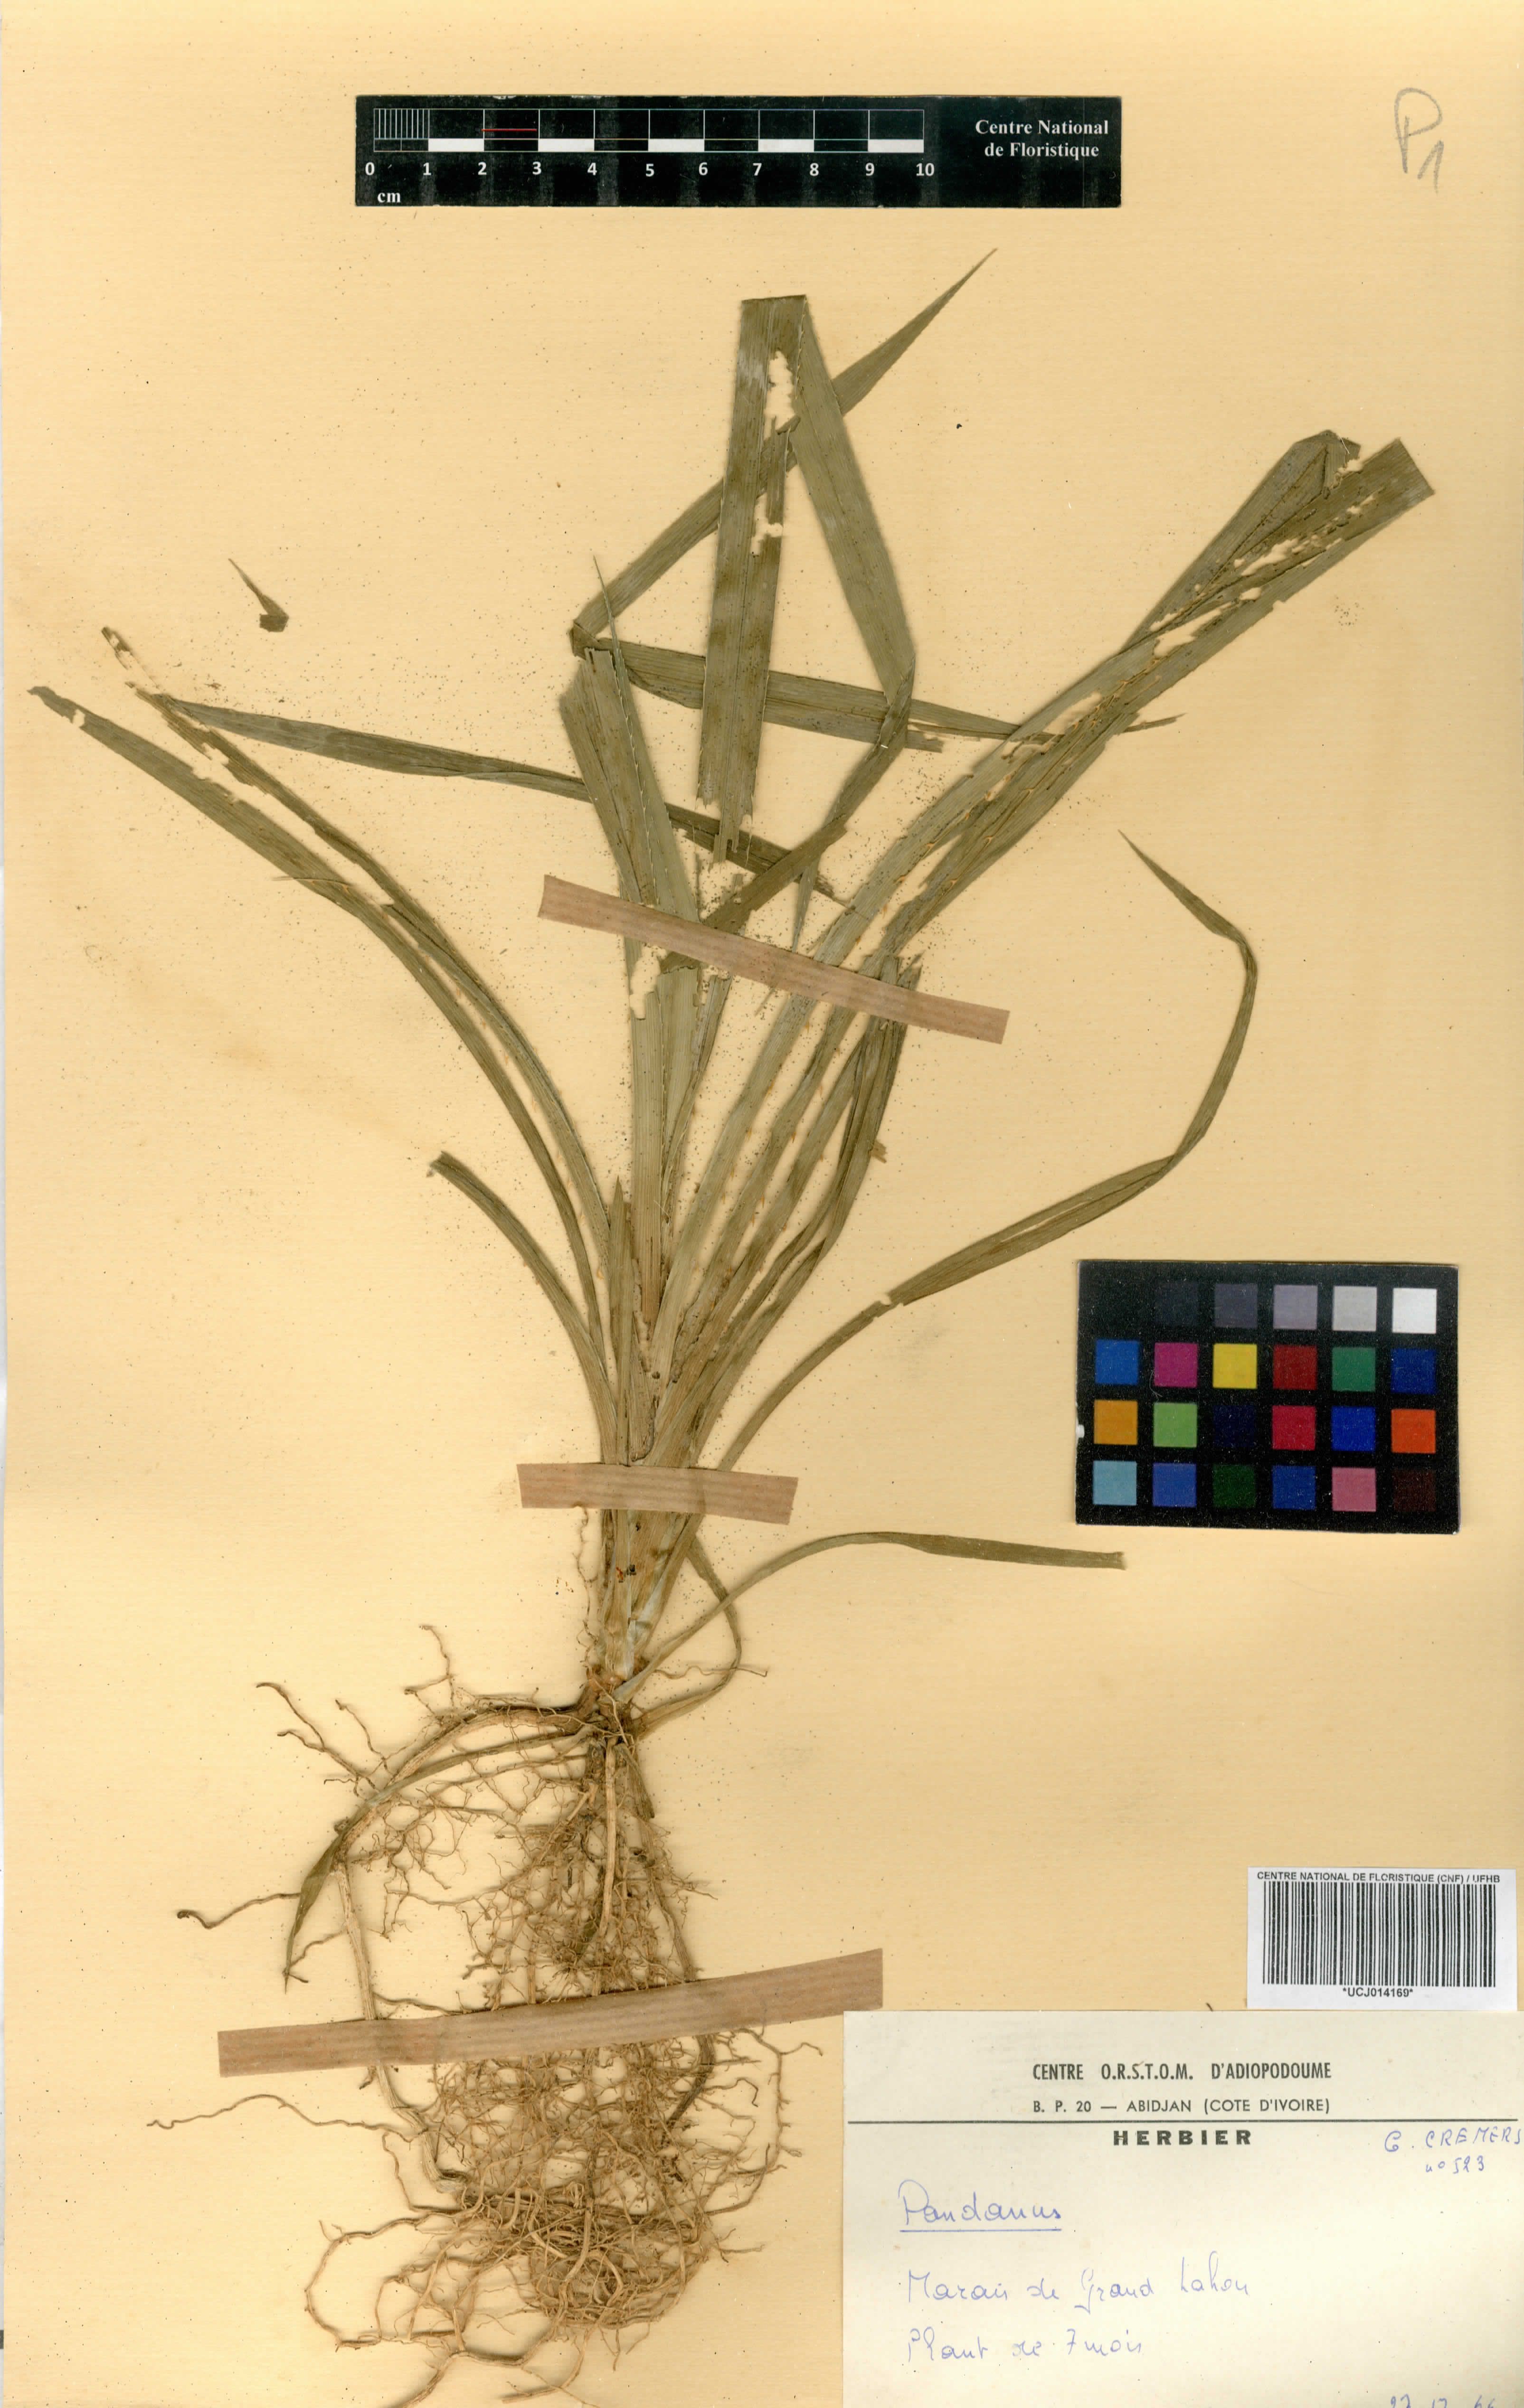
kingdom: Plantae
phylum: Tracheophyta
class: Liliopsida
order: Pandanales
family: Pandanaceae
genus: Pandanus
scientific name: Pandanus
